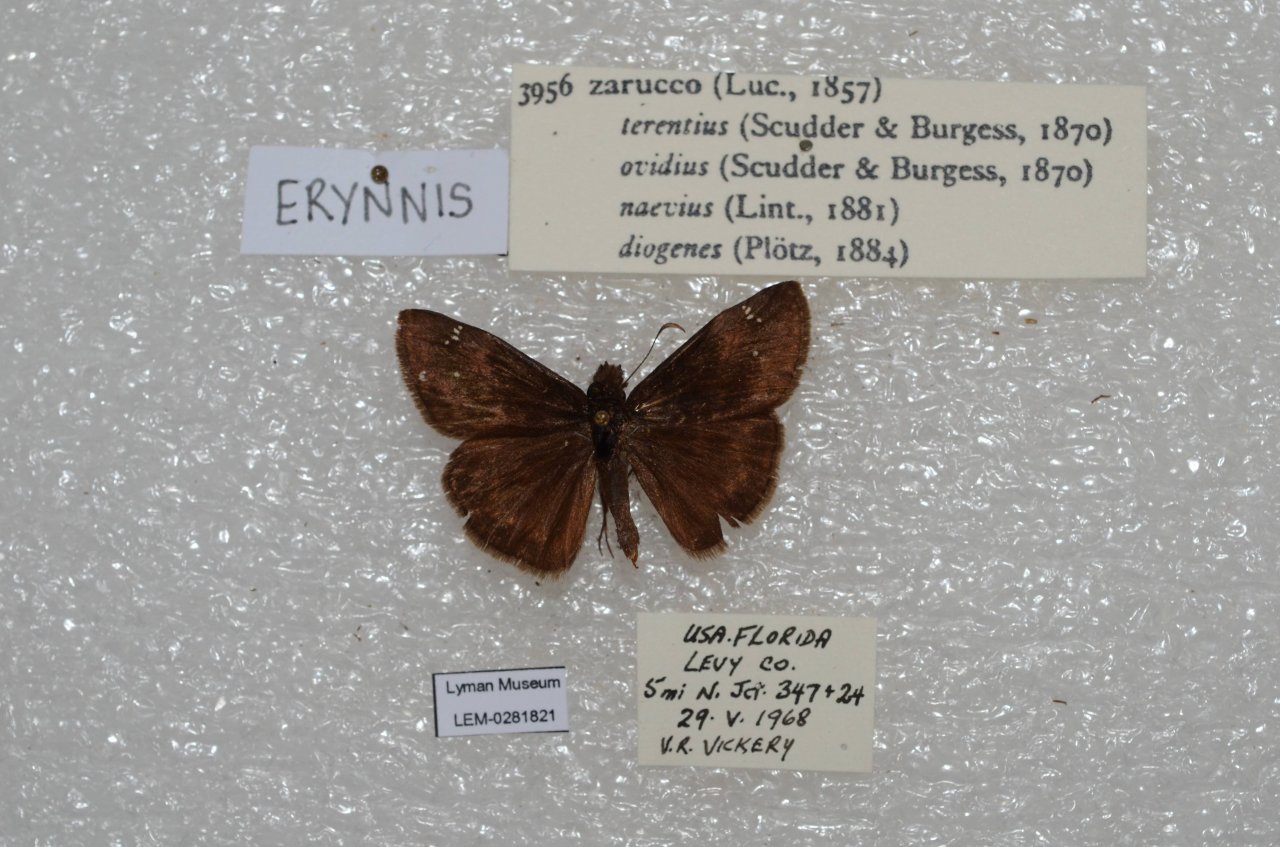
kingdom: Animalia
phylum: Arthropoda
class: Insecta
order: Lepidoptera
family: Hesperiidae
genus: Erynnis
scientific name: Erynnis zarucco
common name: Zarucco Duskywing
